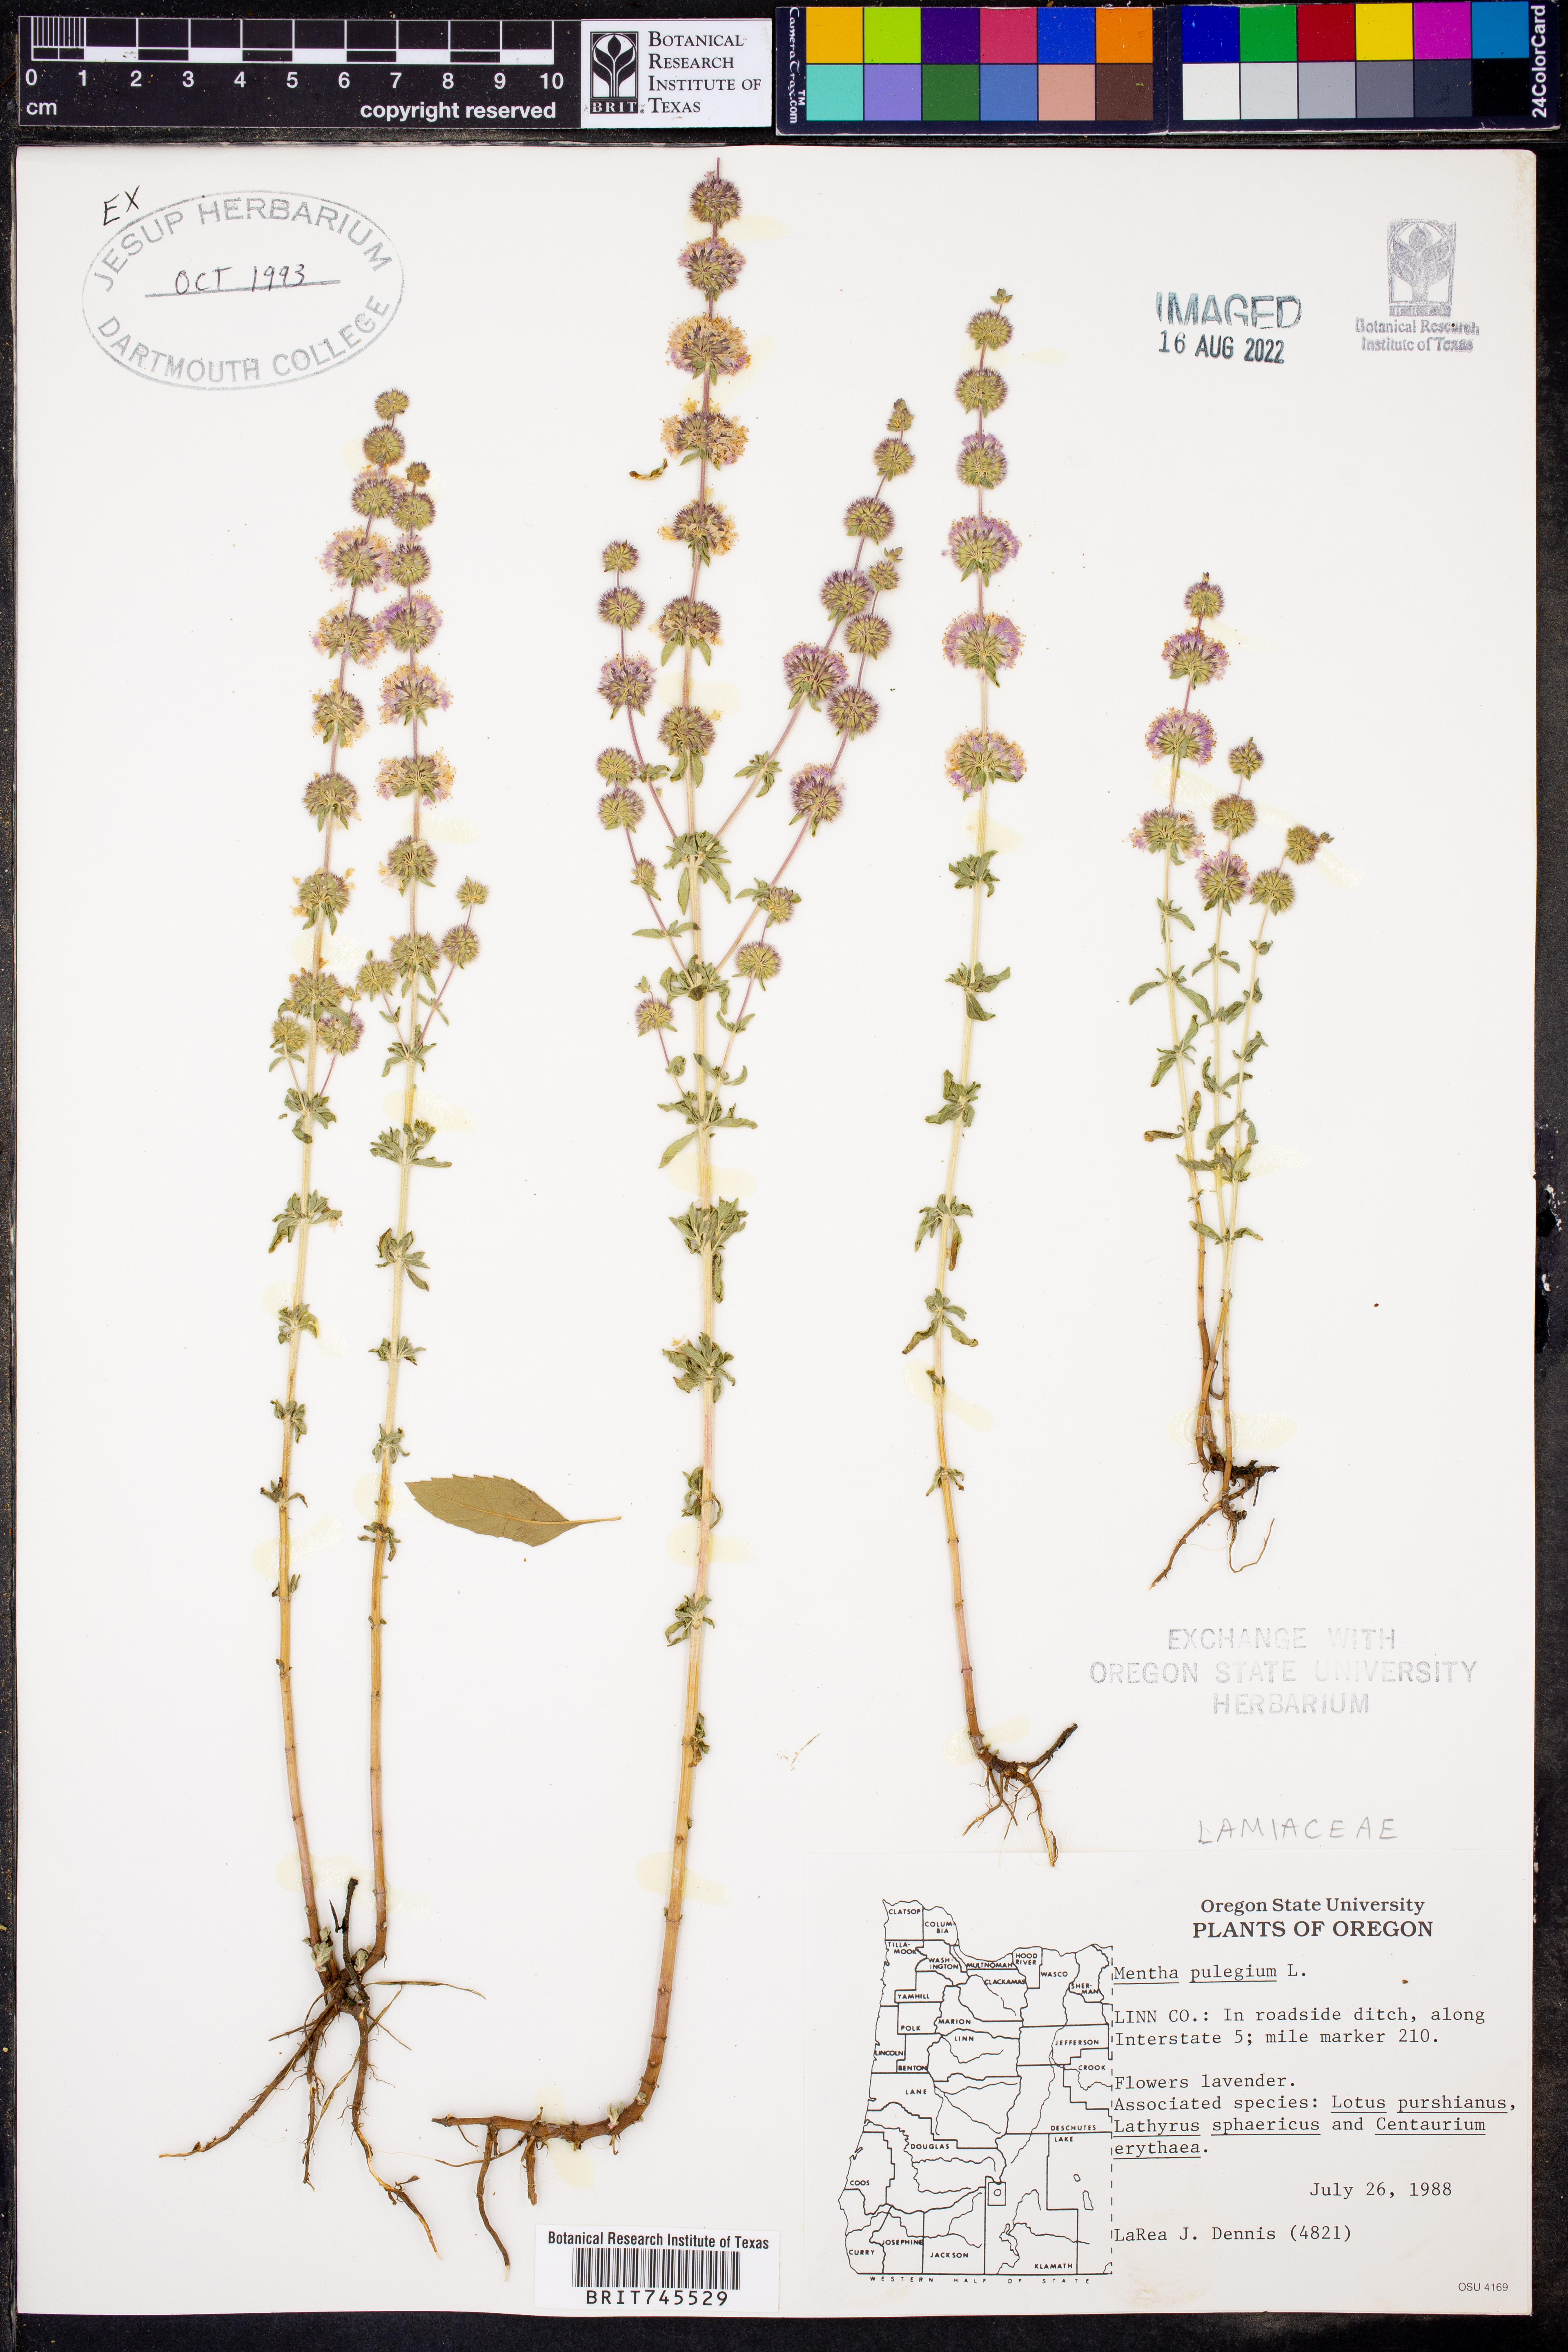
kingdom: Plantae
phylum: Tracheophyta
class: Magnoliopsida
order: Lamiales
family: Lamiaceae
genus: Mentha
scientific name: Mentha
